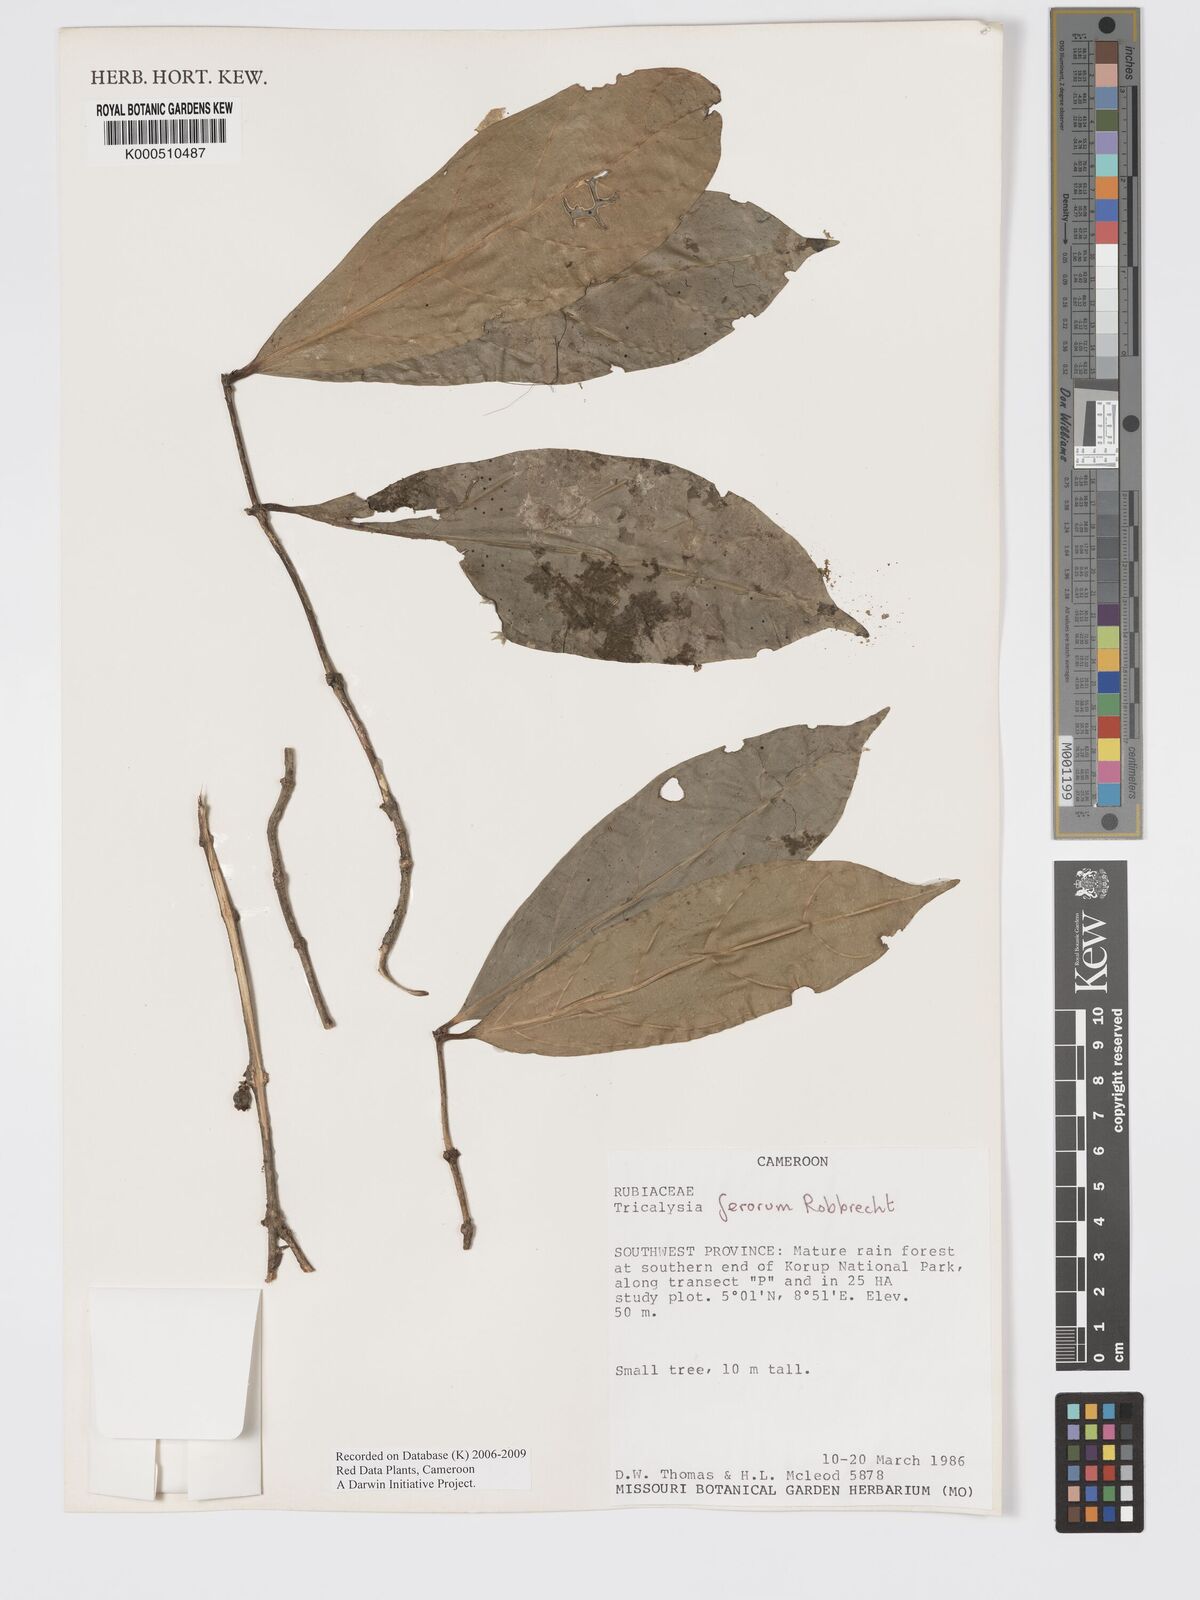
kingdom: Plantae
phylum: Tracheophyta
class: Magnoliopsida
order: Gentianales
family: Rubiaceae
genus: Tricalysia
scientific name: Tricalysia ferorum
